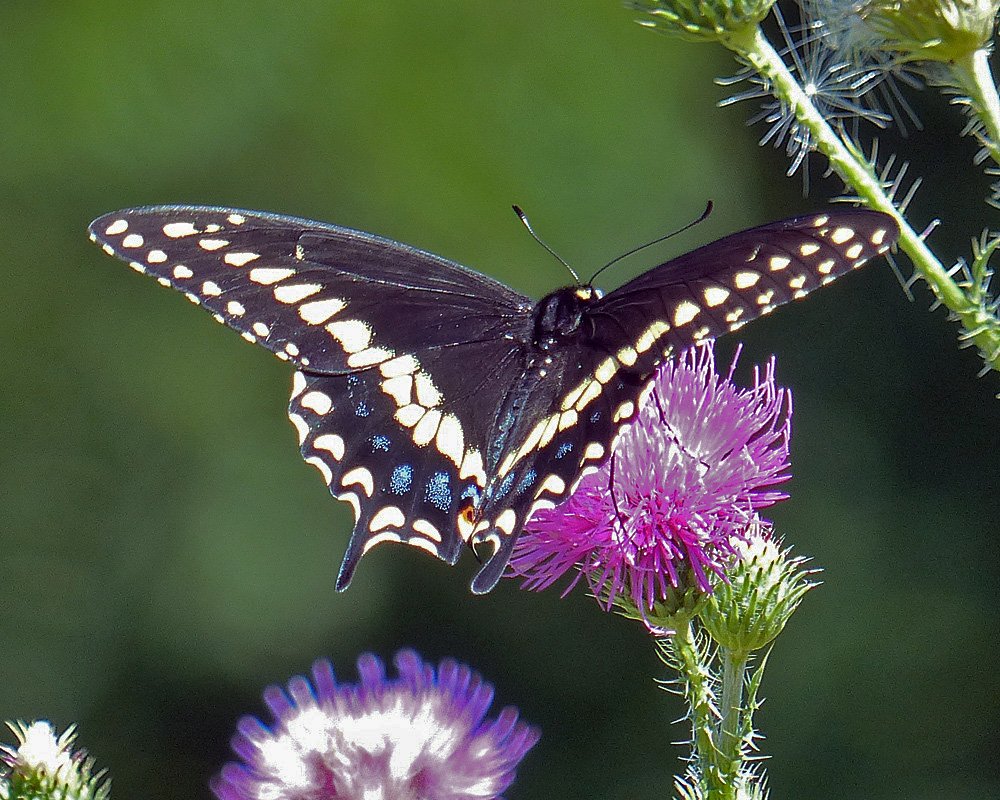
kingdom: Animalia
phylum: Arthropoda
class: Insecta
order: Lepidoptera
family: Papilionidae
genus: Papilio
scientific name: Papilio polyxenes
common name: Black Swallowtail
